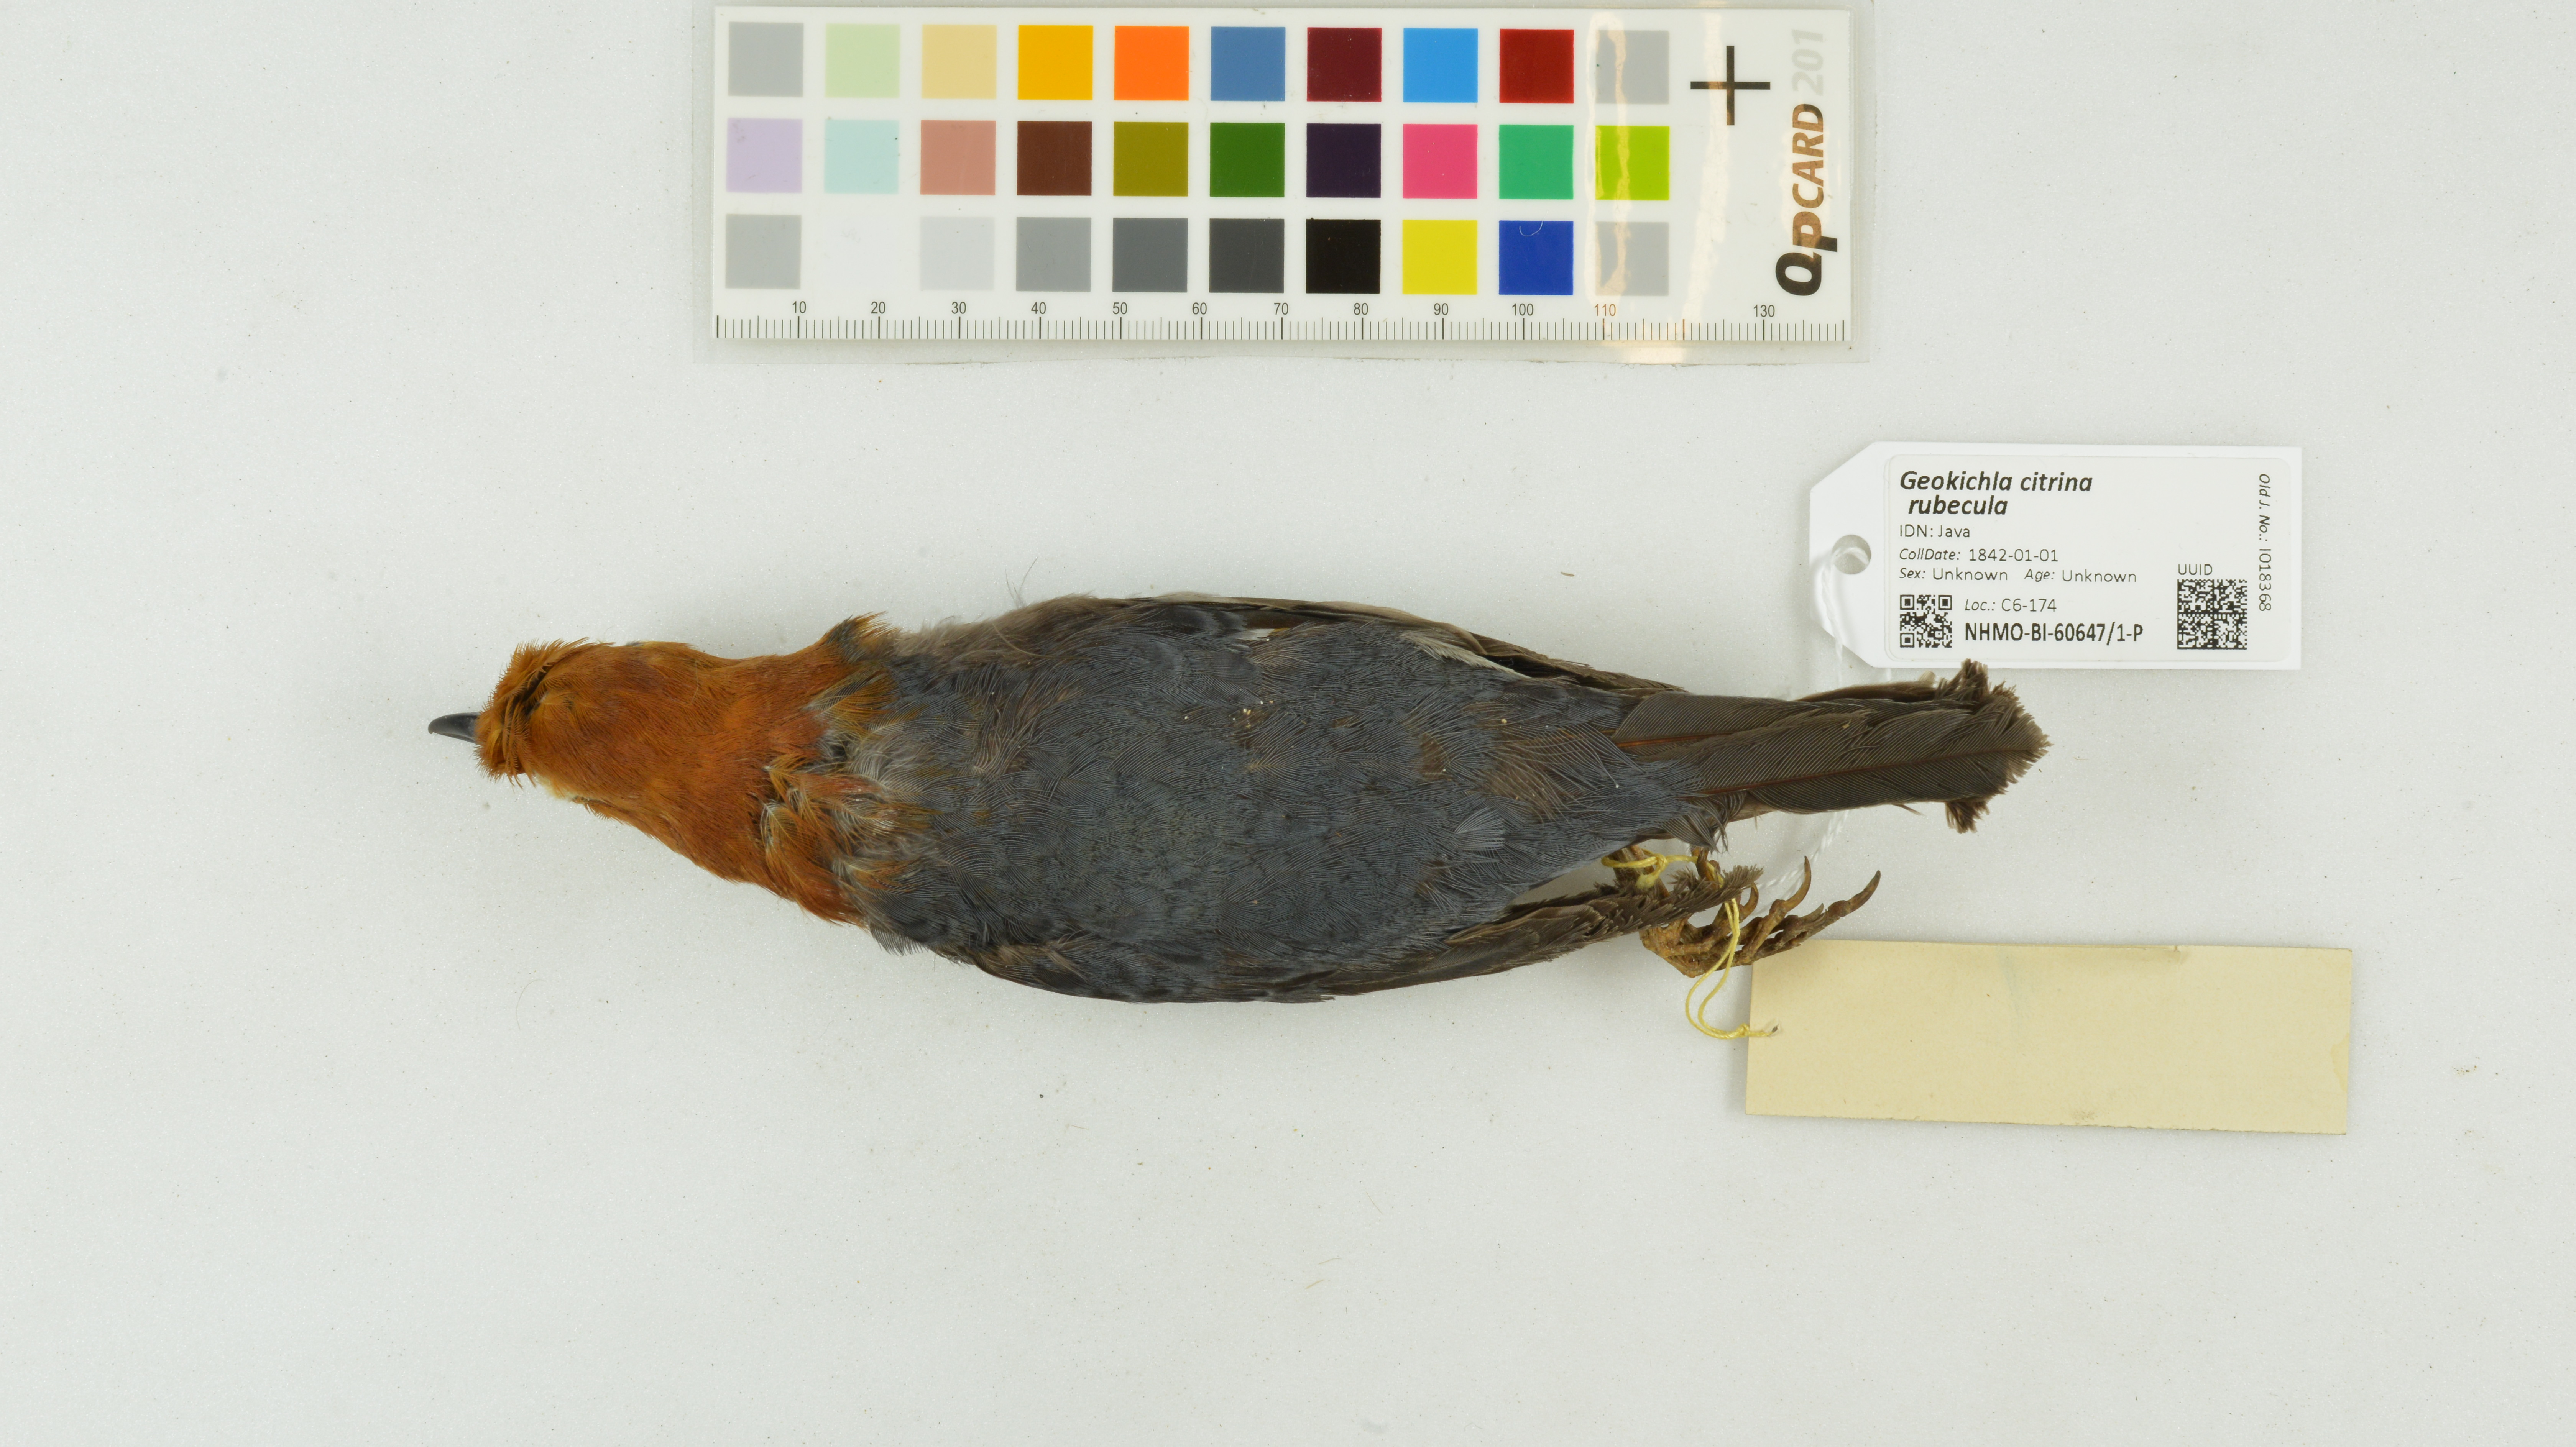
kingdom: Animalia
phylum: Chordata
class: Aves
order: Passeriformes
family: Turdidae
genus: Geokichla
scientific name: Geokichla citrina
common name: Orange-headed thrush
